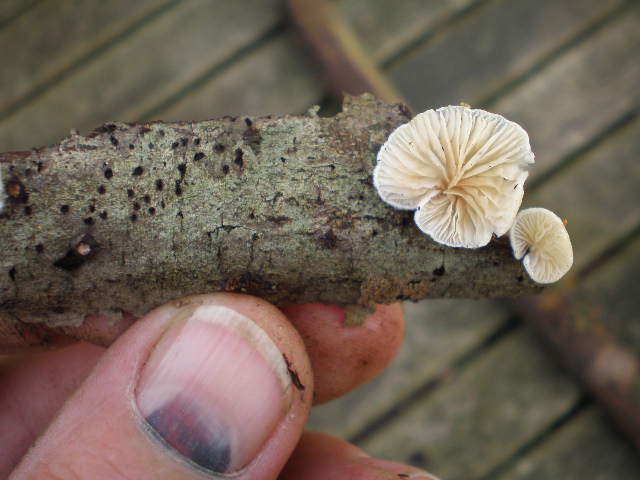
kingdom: Fungi
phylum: Basidiomycota
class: Agaricomycetes
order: Agaricales
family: Crepidotaceae
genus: Crepidotus
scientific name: Crepidotus cesatii
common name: almindelig muslingesvamp
